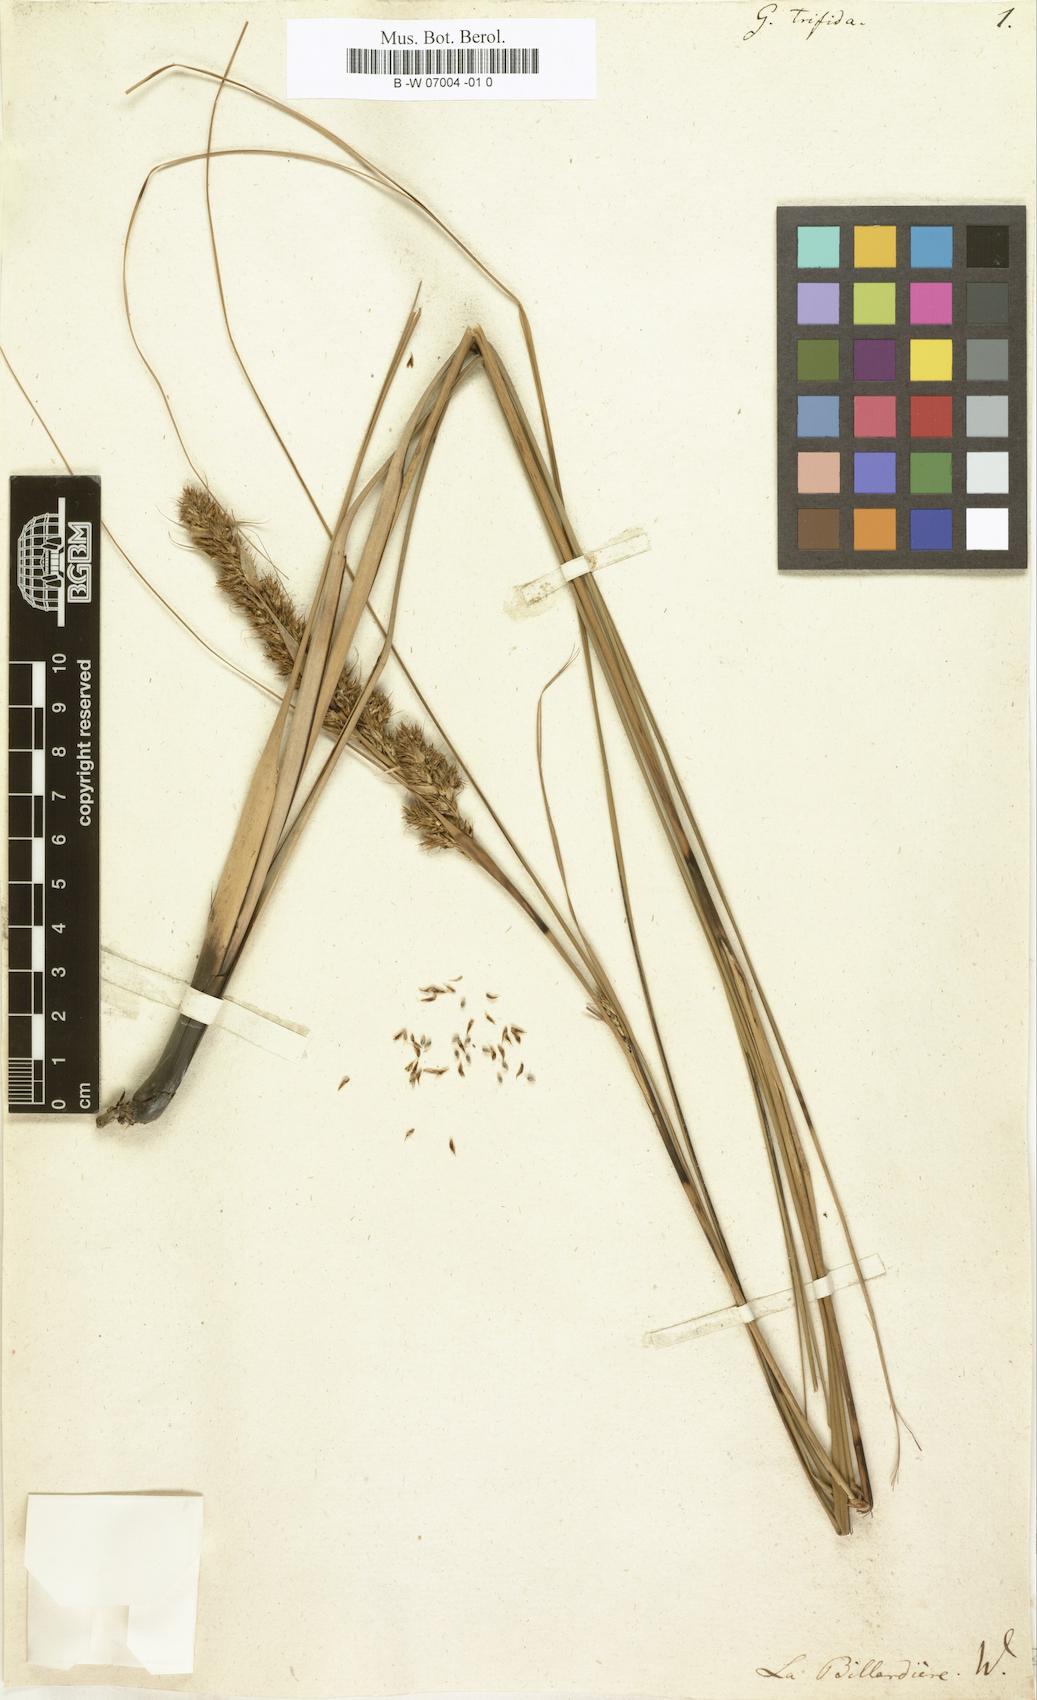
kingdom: Plantae
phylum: Tracheophyta
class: Liliopsida
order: Poales
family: Cyperaceae
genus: Gahnia
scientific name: Gahnia trifida
